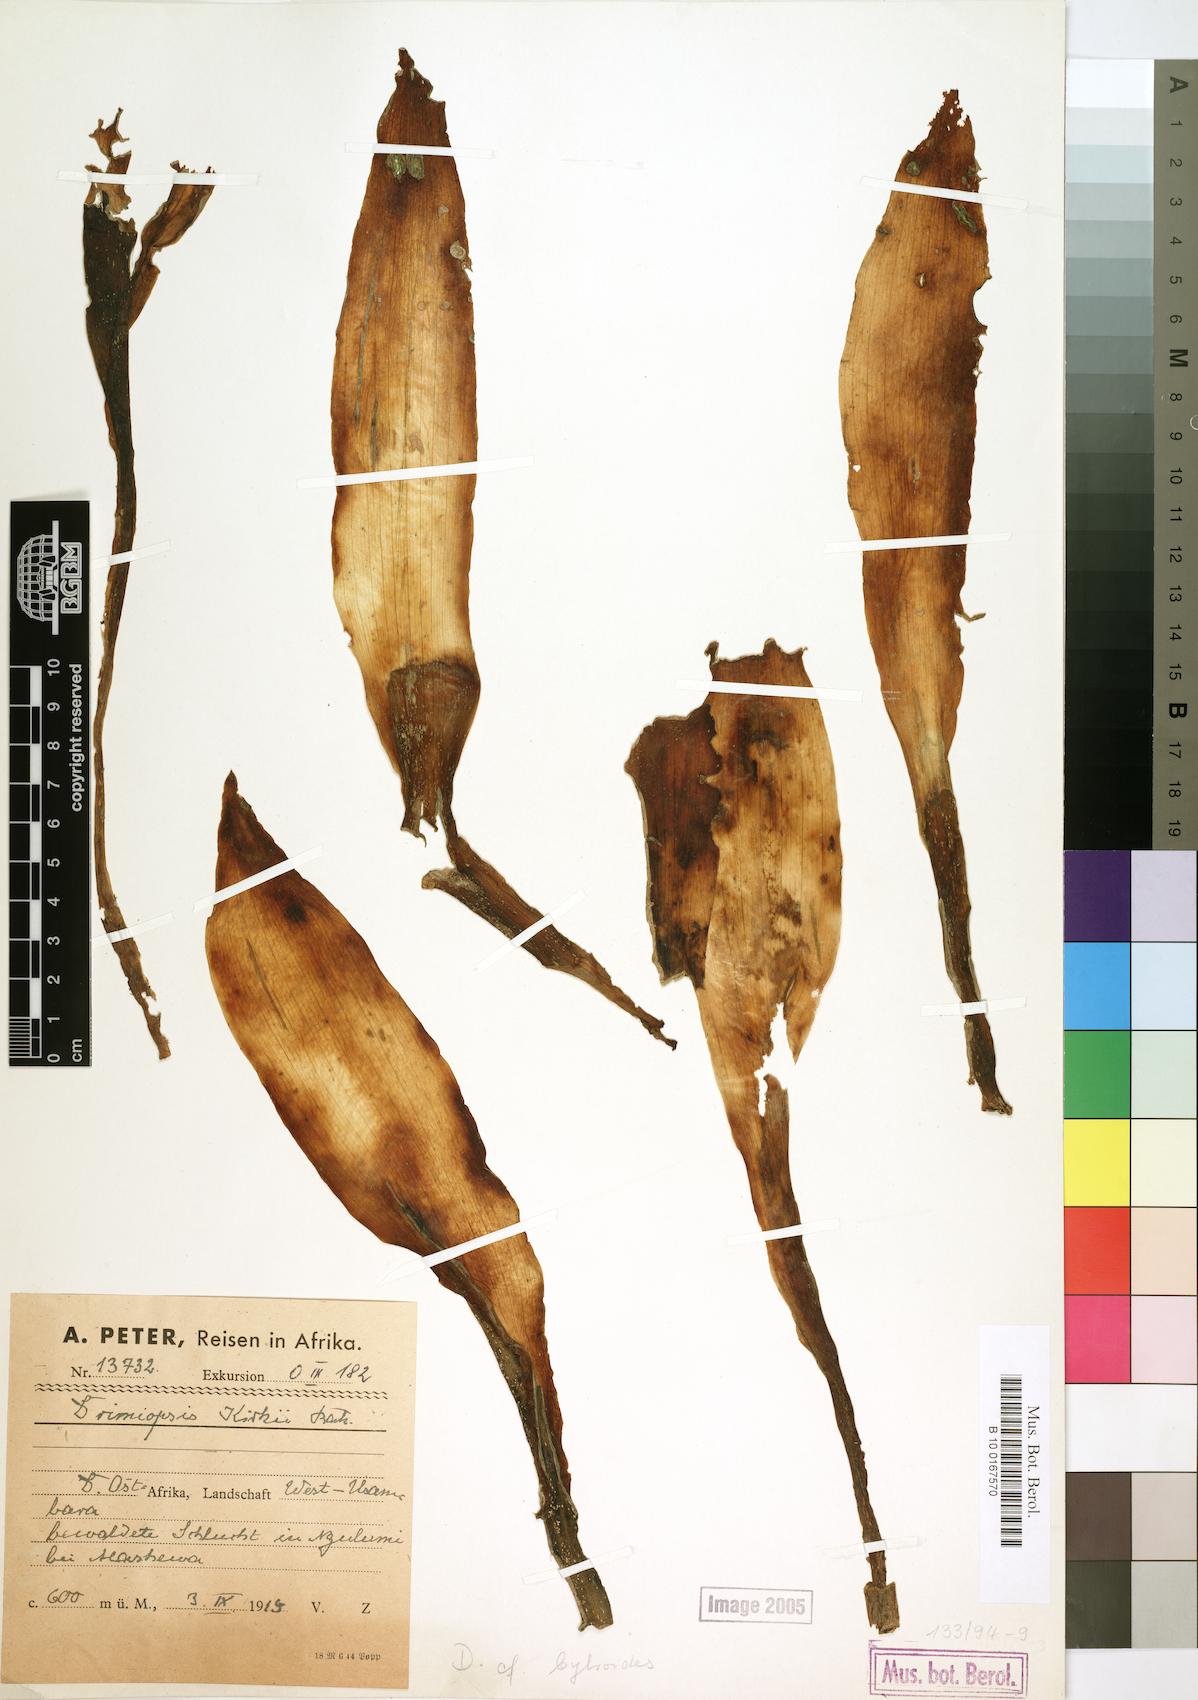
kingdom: Plantae
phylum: Tracheophyta
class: Liliopsida
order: Asparagales
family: Asparagaceae
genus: Drimiopsis
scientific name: Drimiopsis botryoides
